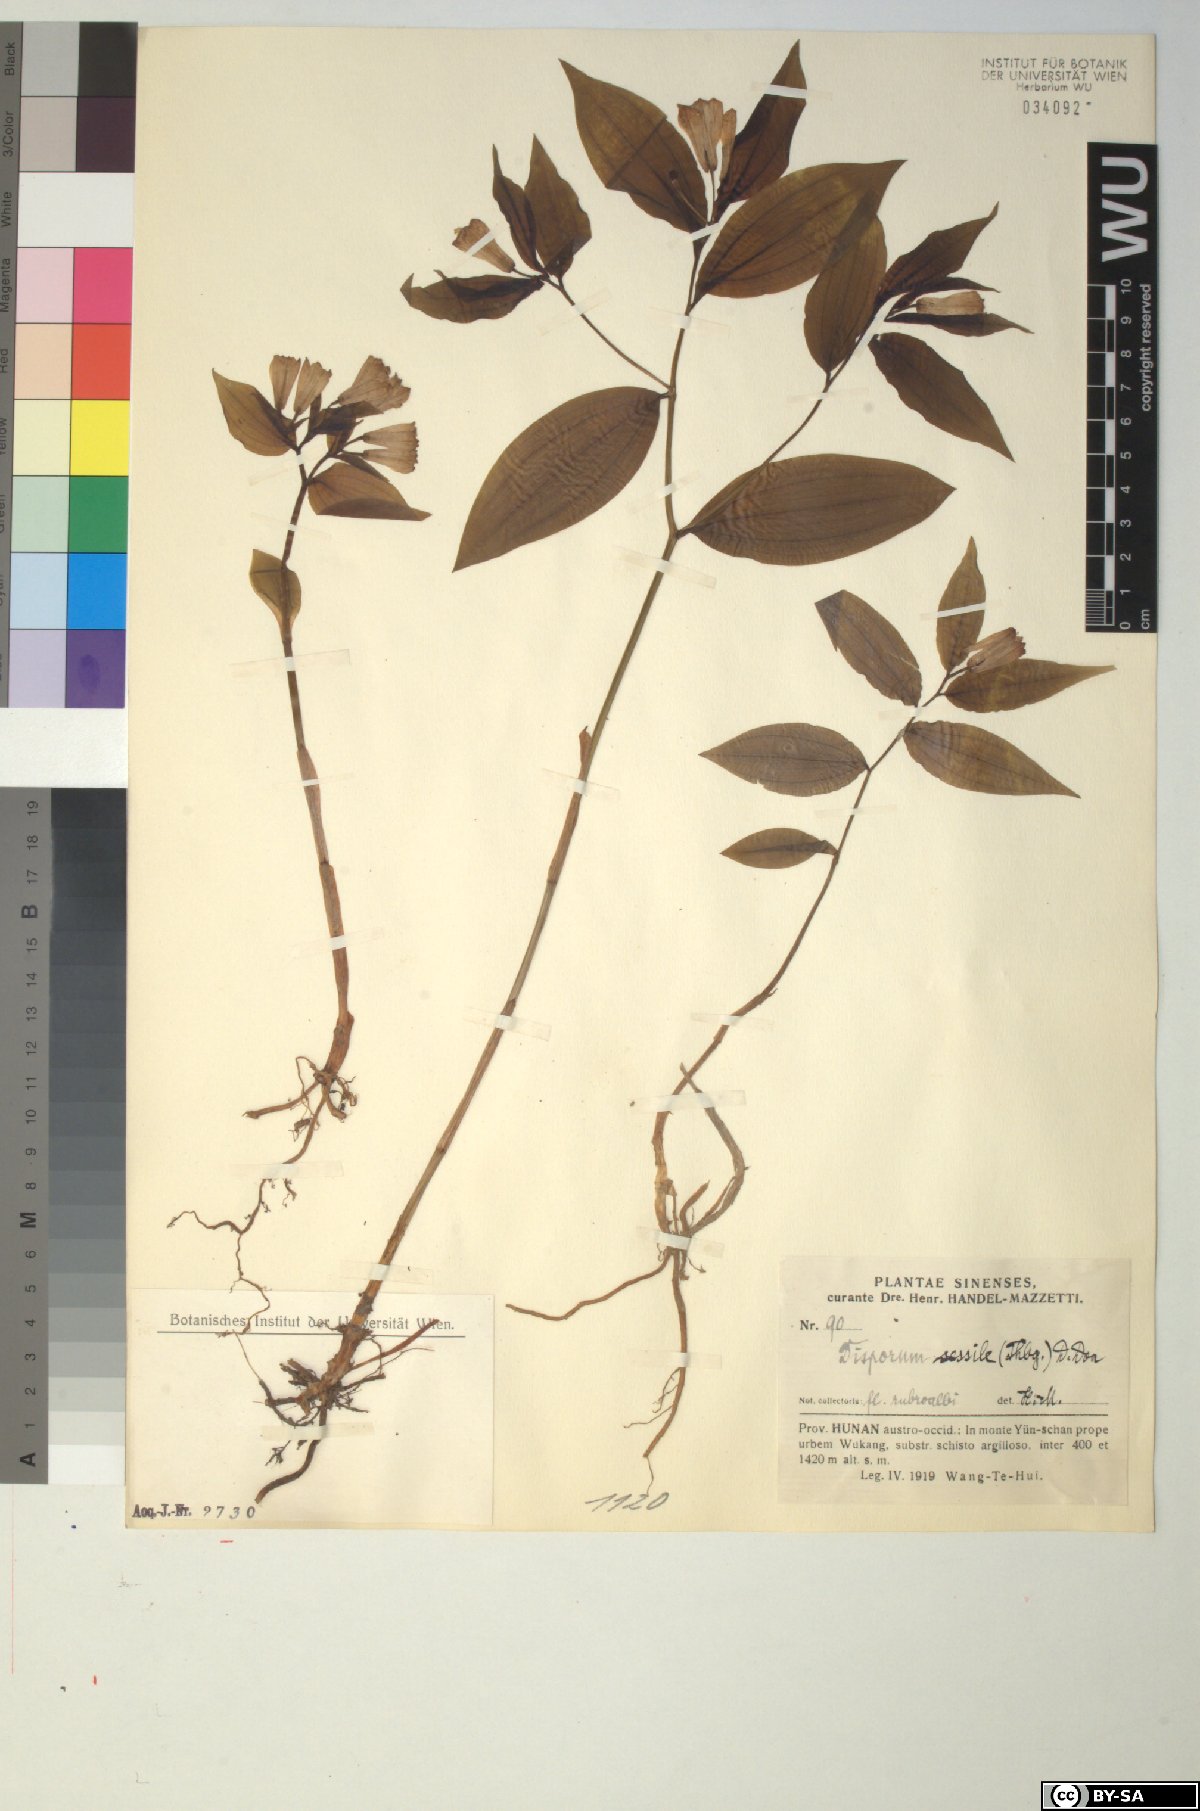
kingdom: Plantae
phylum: Tracheophyta
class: Liliopsida
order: Liliales
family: Colchicaceae
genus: Disporum
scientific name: Disporum sessile
